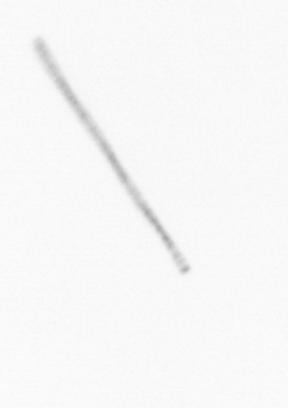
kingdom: Chromista
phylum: Ochrophyta
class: Bacillariophyceae
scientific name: Bacillariophyceae
